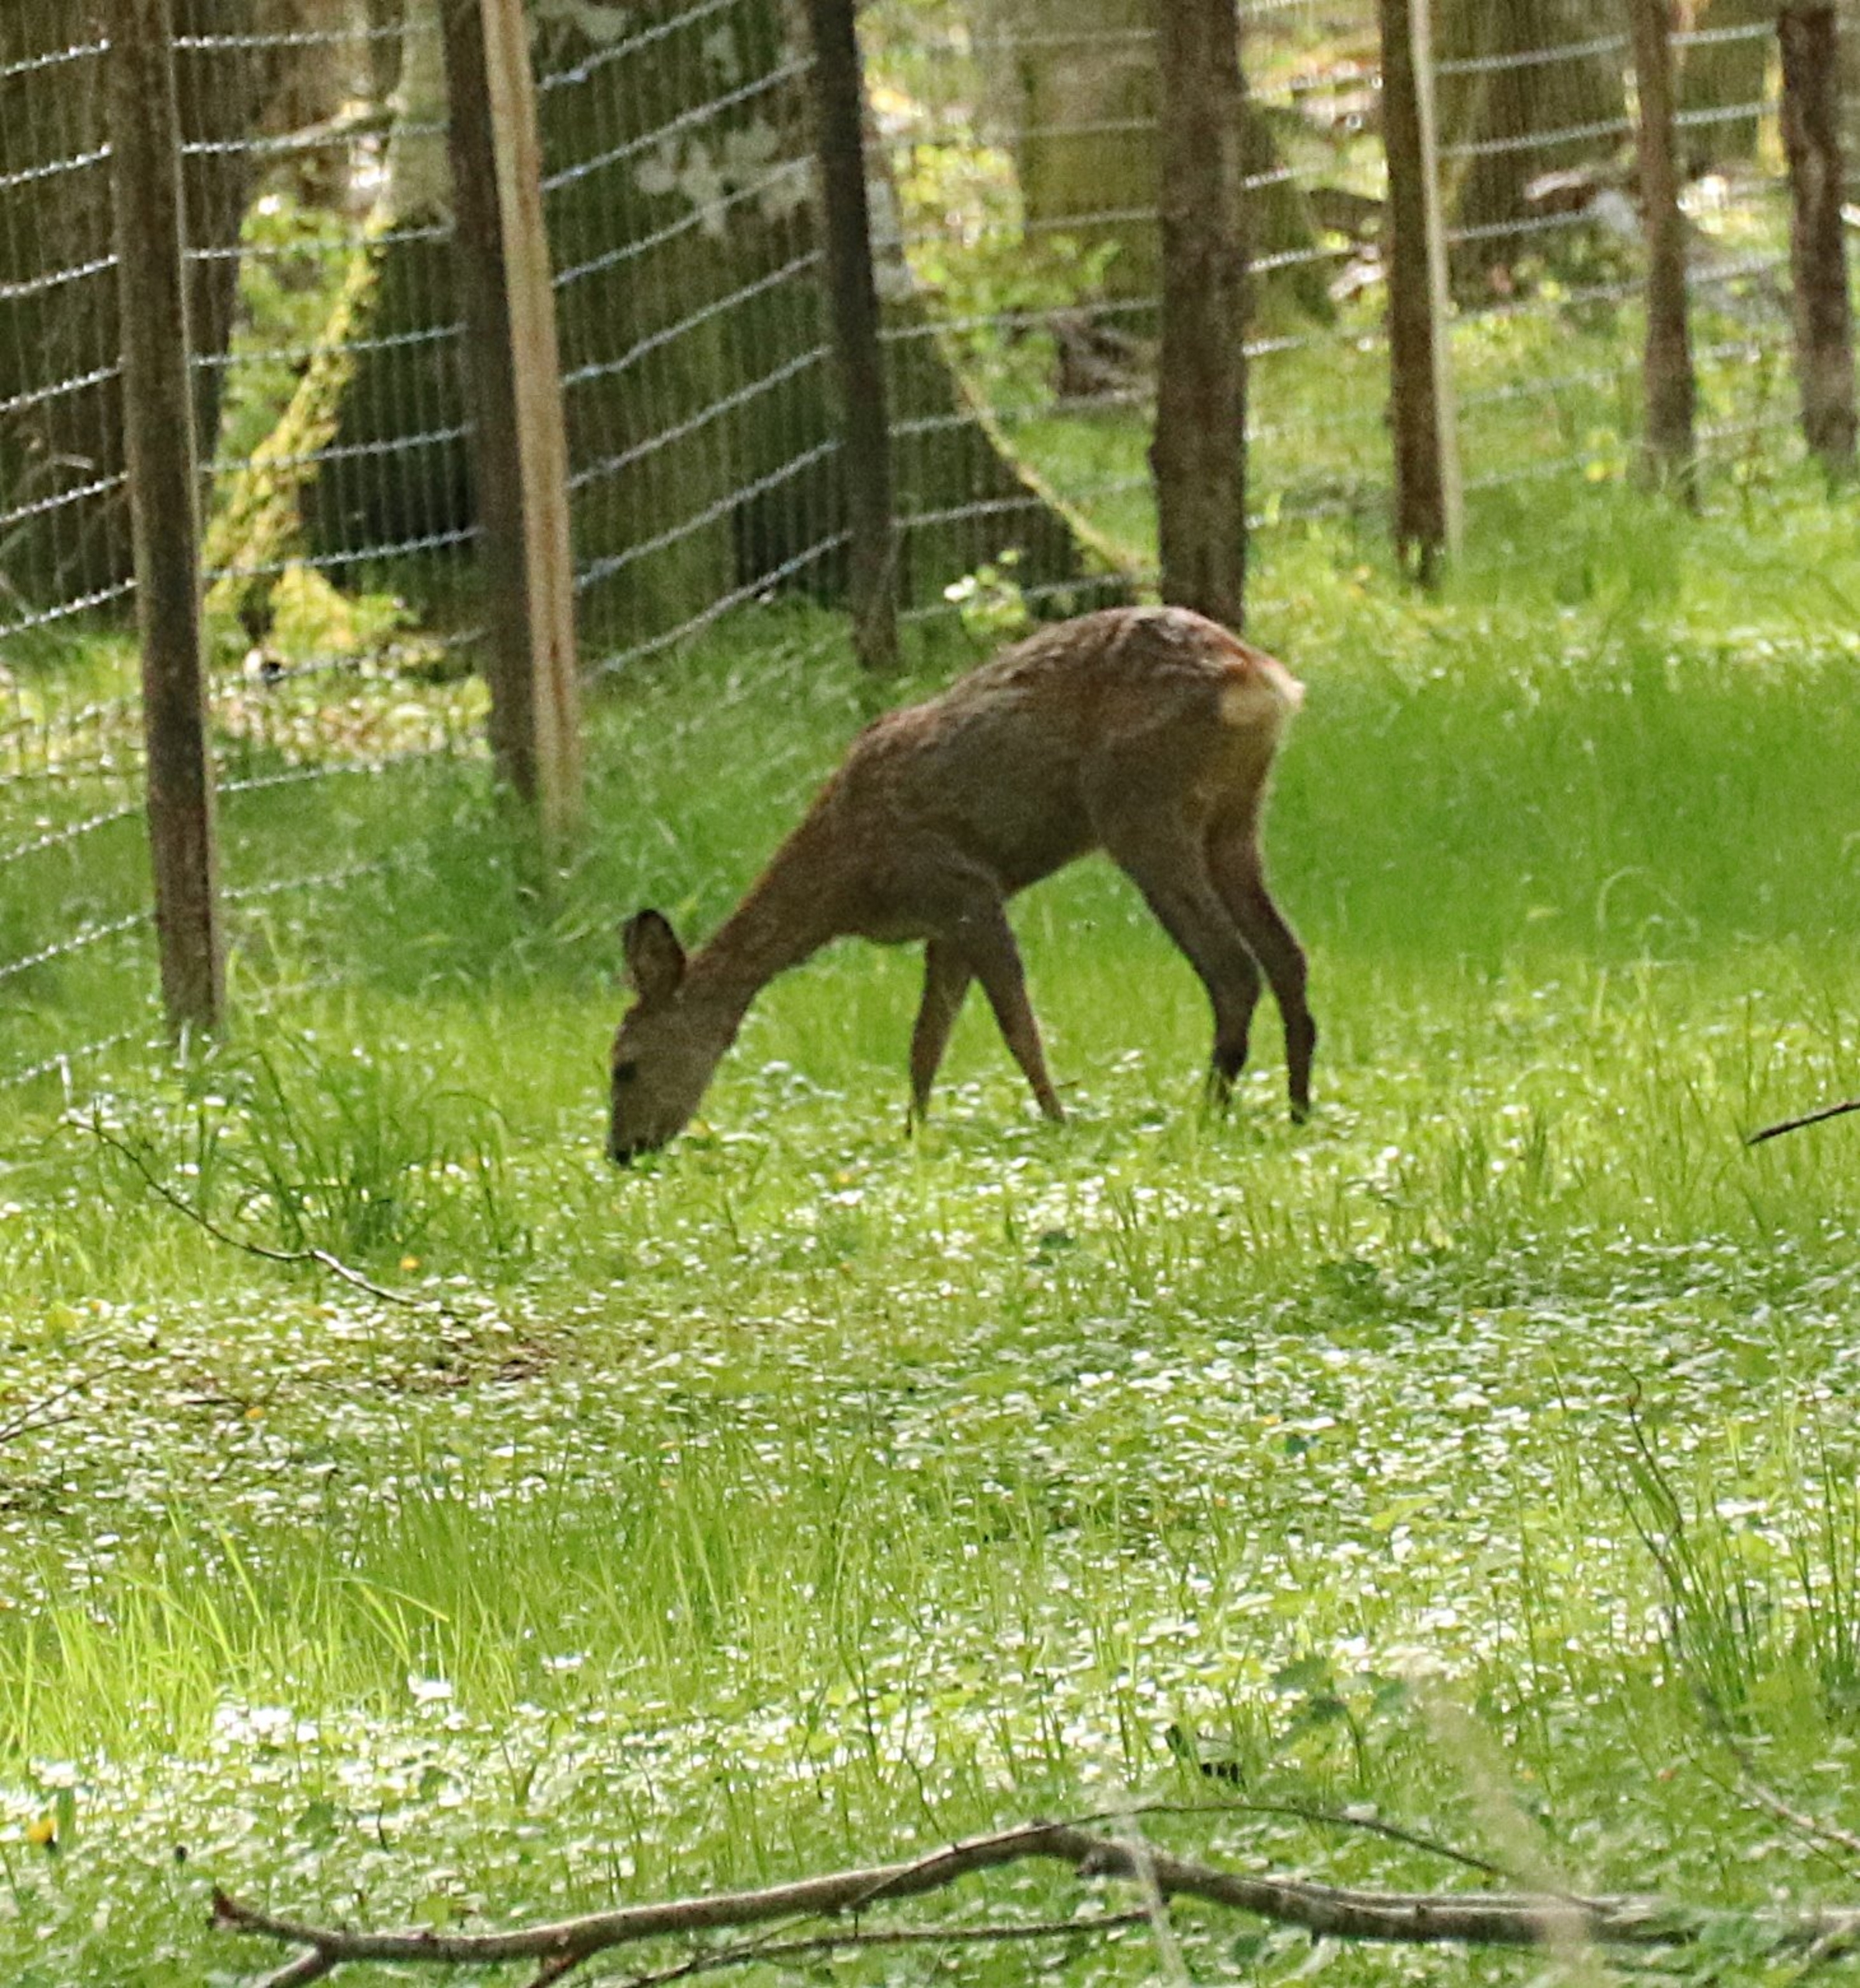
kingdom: Animalia
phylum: Chordata
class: Mammalia
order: Artiodactyla
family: Cervidae
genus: Capreolus
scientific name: Capreolus capreolus
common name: Rådyr
